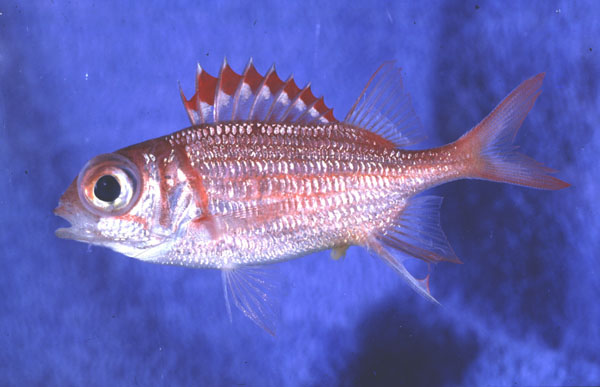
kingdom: Animalia
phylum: Chordata
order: Beryciformes
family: Holocentridae
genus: Sargocentron
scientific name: Sargocentron punctatissimum
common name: Peppered squirrelfish
